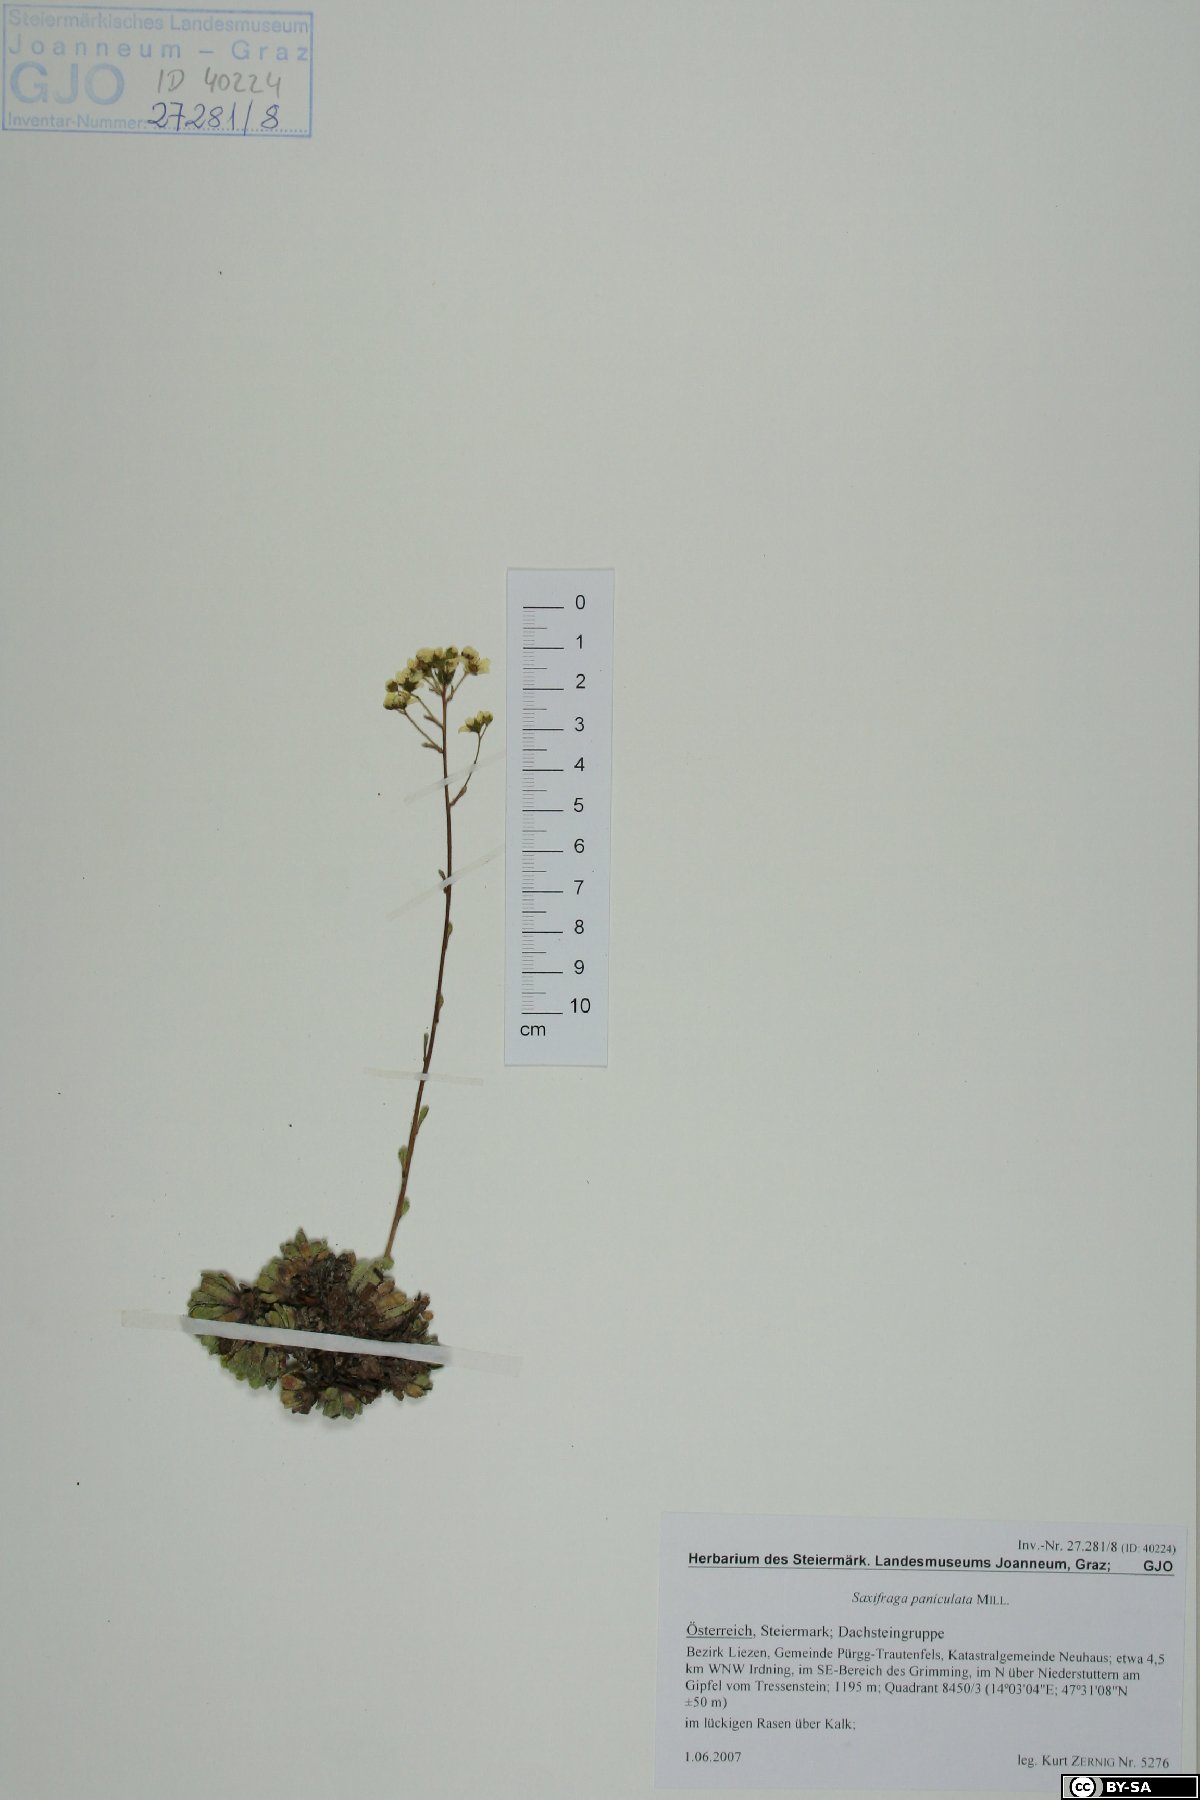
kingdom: Plantae
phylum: Tracheophyta
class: Magnoliopsida
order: Saxifragales
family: Saxifragaceae
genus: Saxifraga
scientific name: Saxifraga paniculata
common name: Livelong saxifrage
